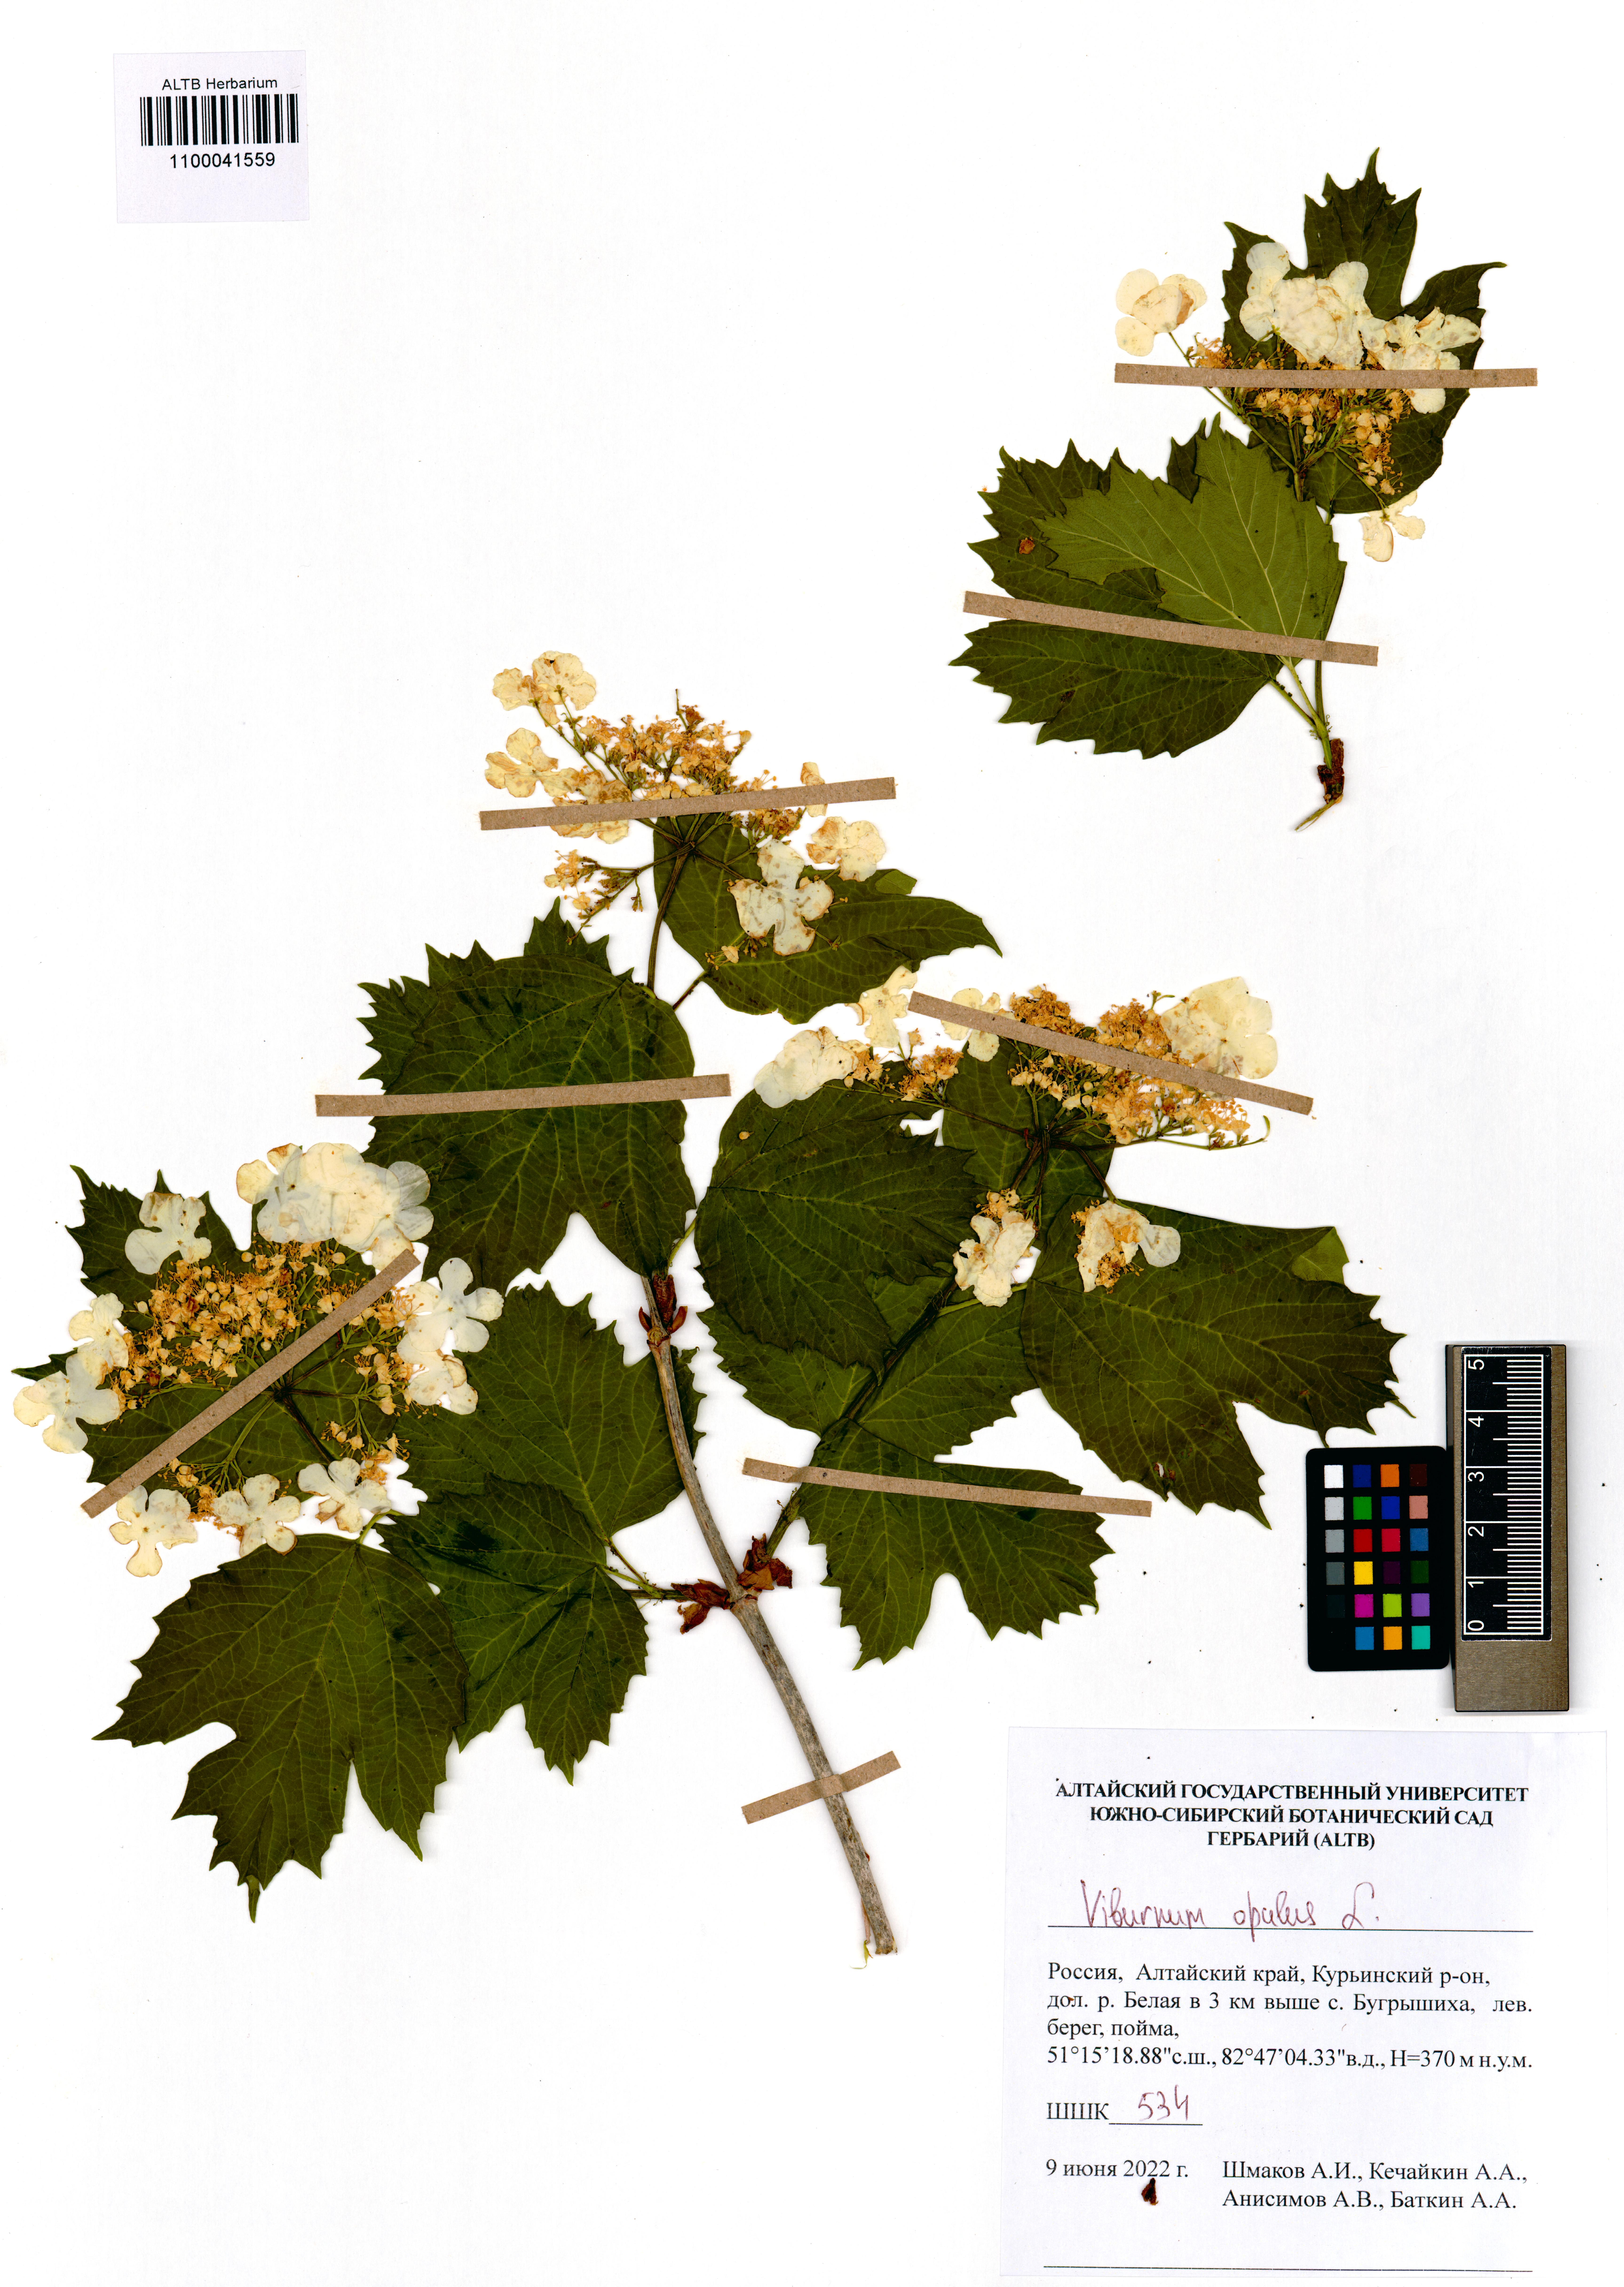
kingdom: Plantae
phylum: Tracheophyta
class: Magnoliopsida
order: Dipsacales
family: Viburnaceae
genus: Viburnum
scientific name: Viburnum opulus
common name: Guelder-rose
